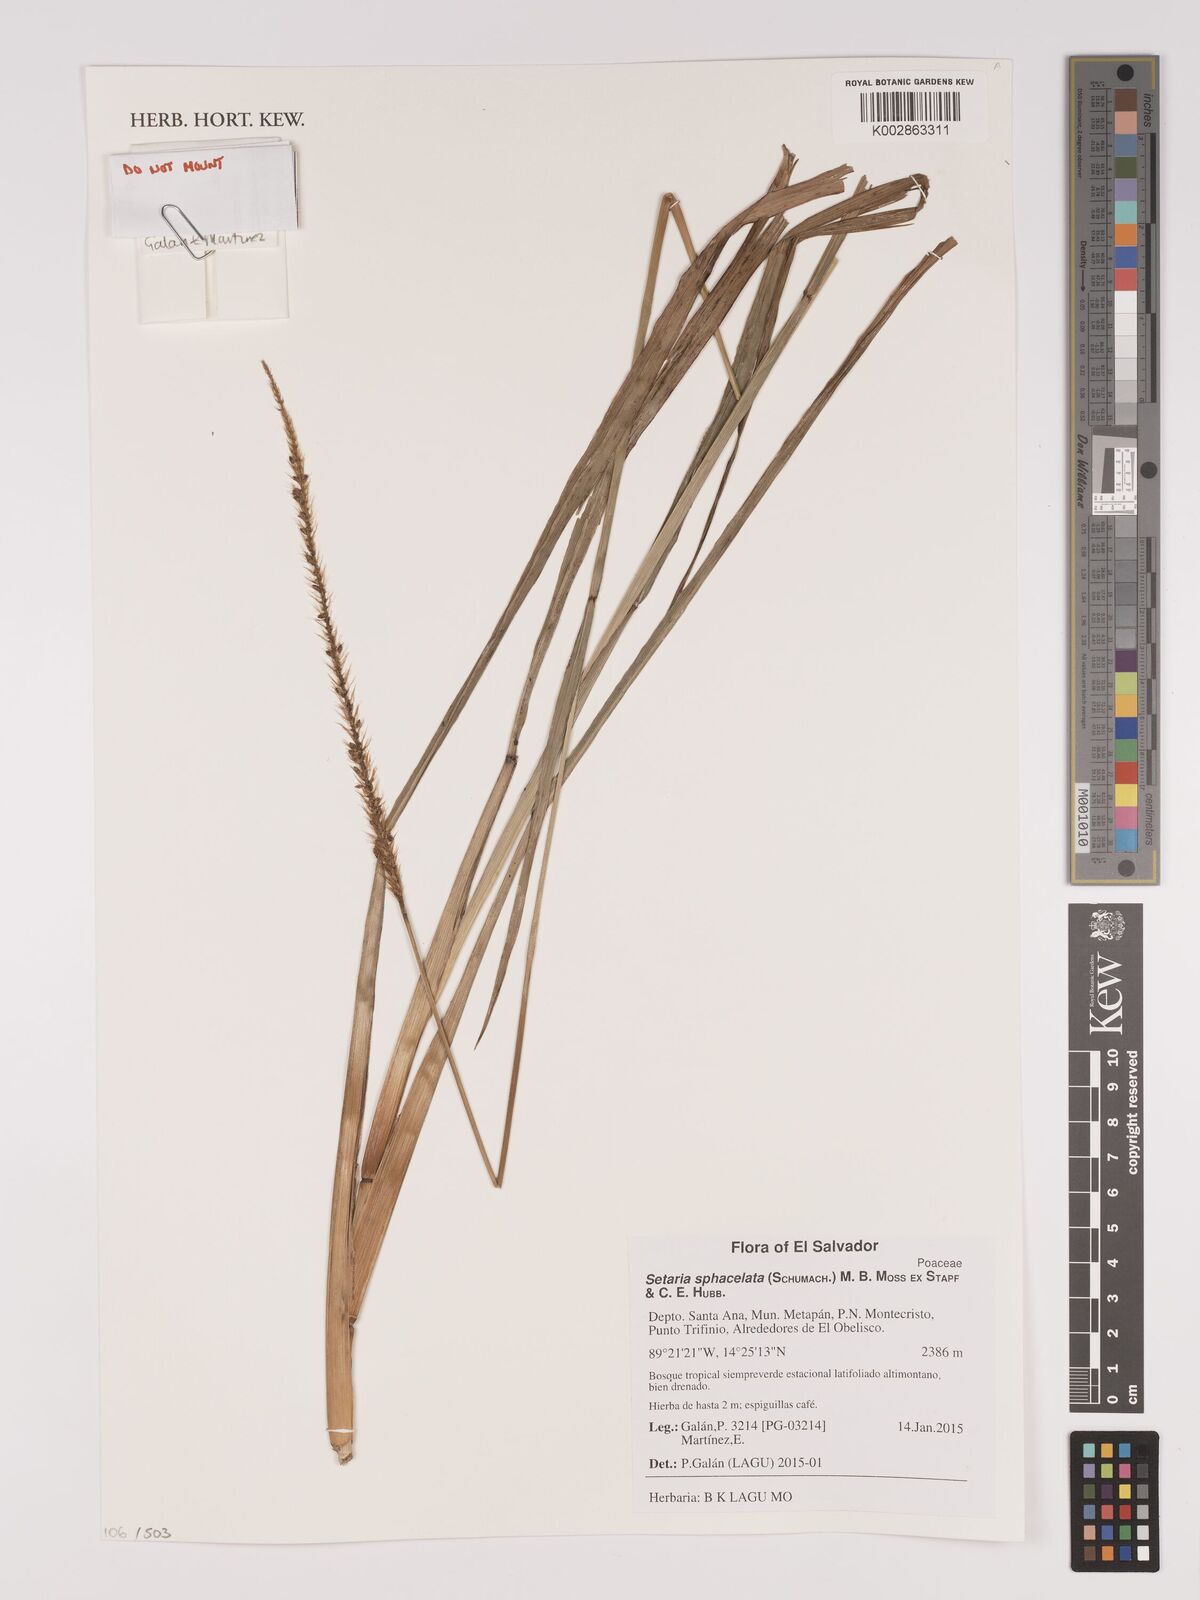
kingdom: Plantae
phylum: Tracheophyta
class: Liliopsida
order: Poales
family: Poaceae
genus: Setaria
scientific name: Setaria sphacelata
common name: African bristlegrass
